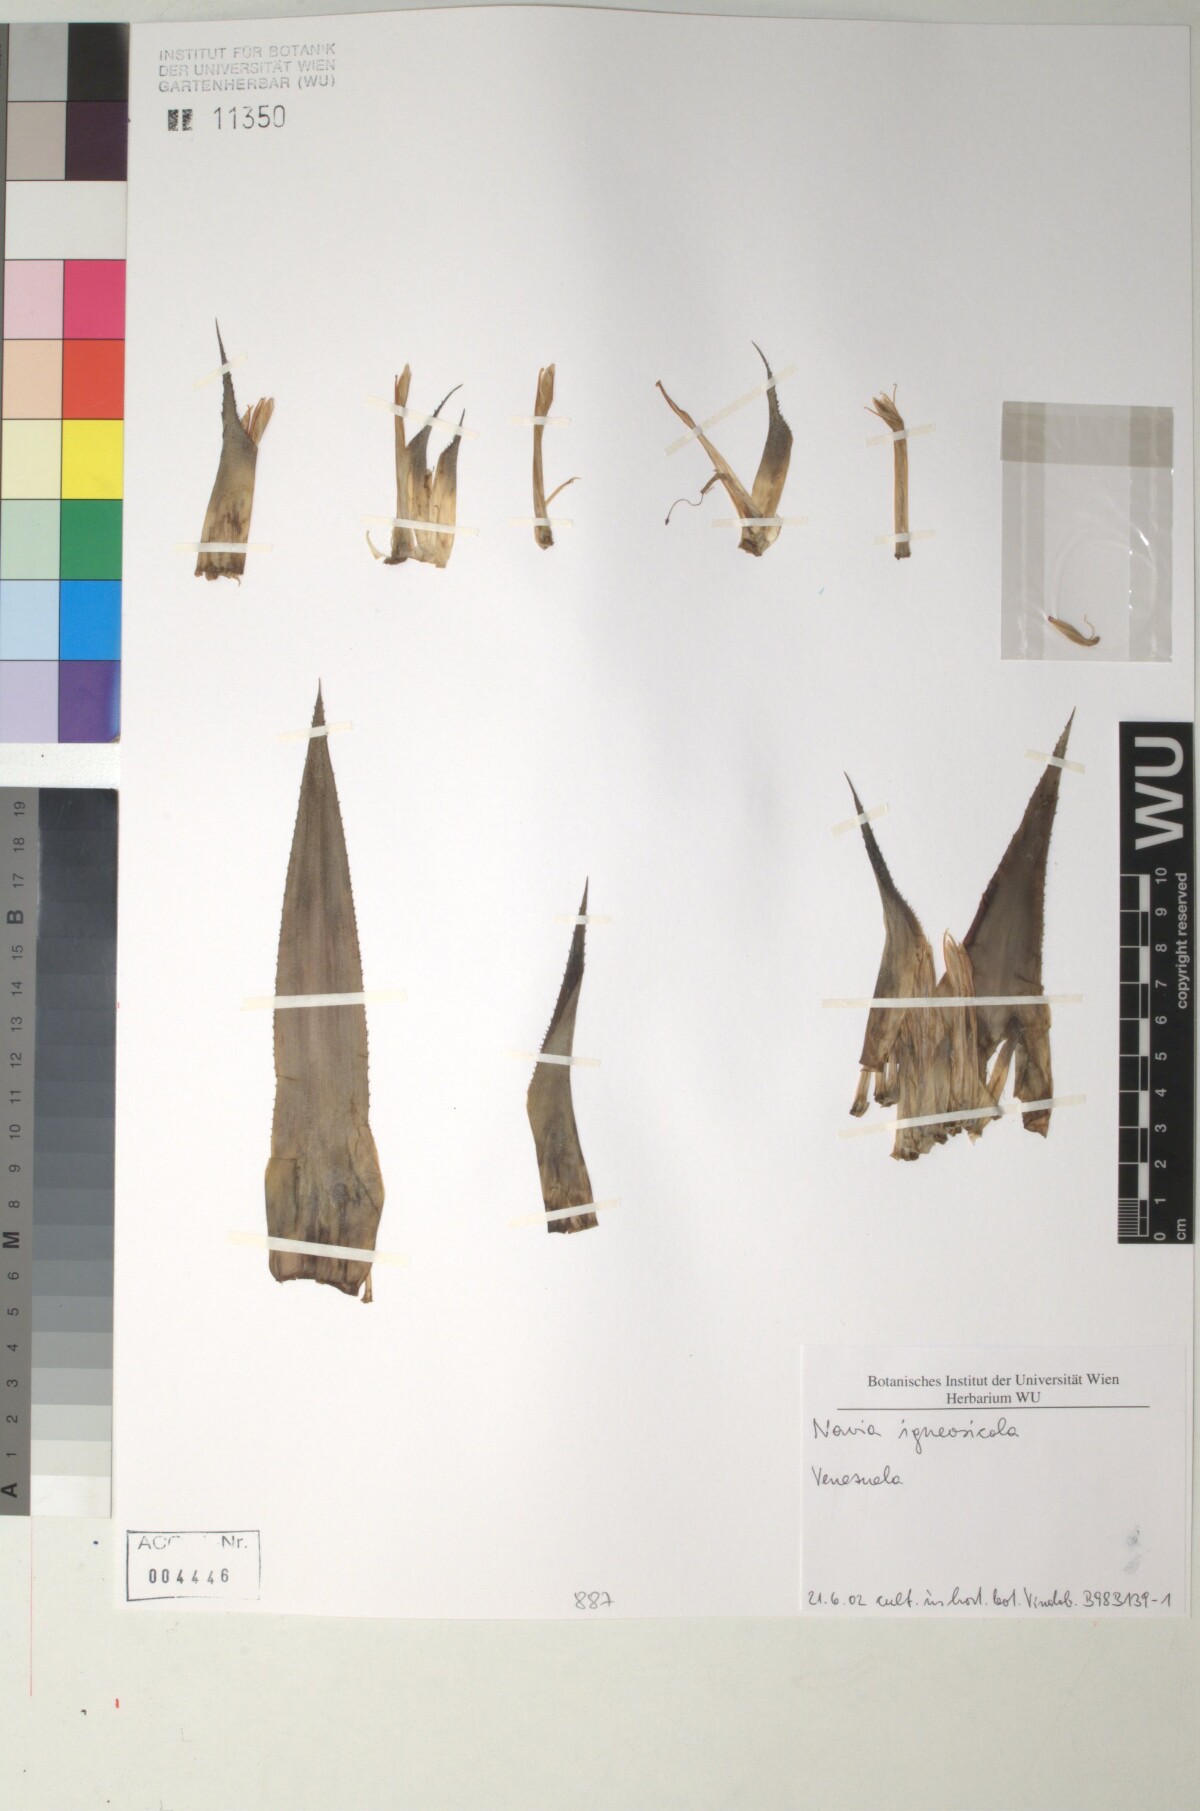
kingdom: Plantae
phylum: Tracheophyta
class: Liliopsida
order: Poales
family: Bromeliaceae
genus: Navia
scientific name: Navia
